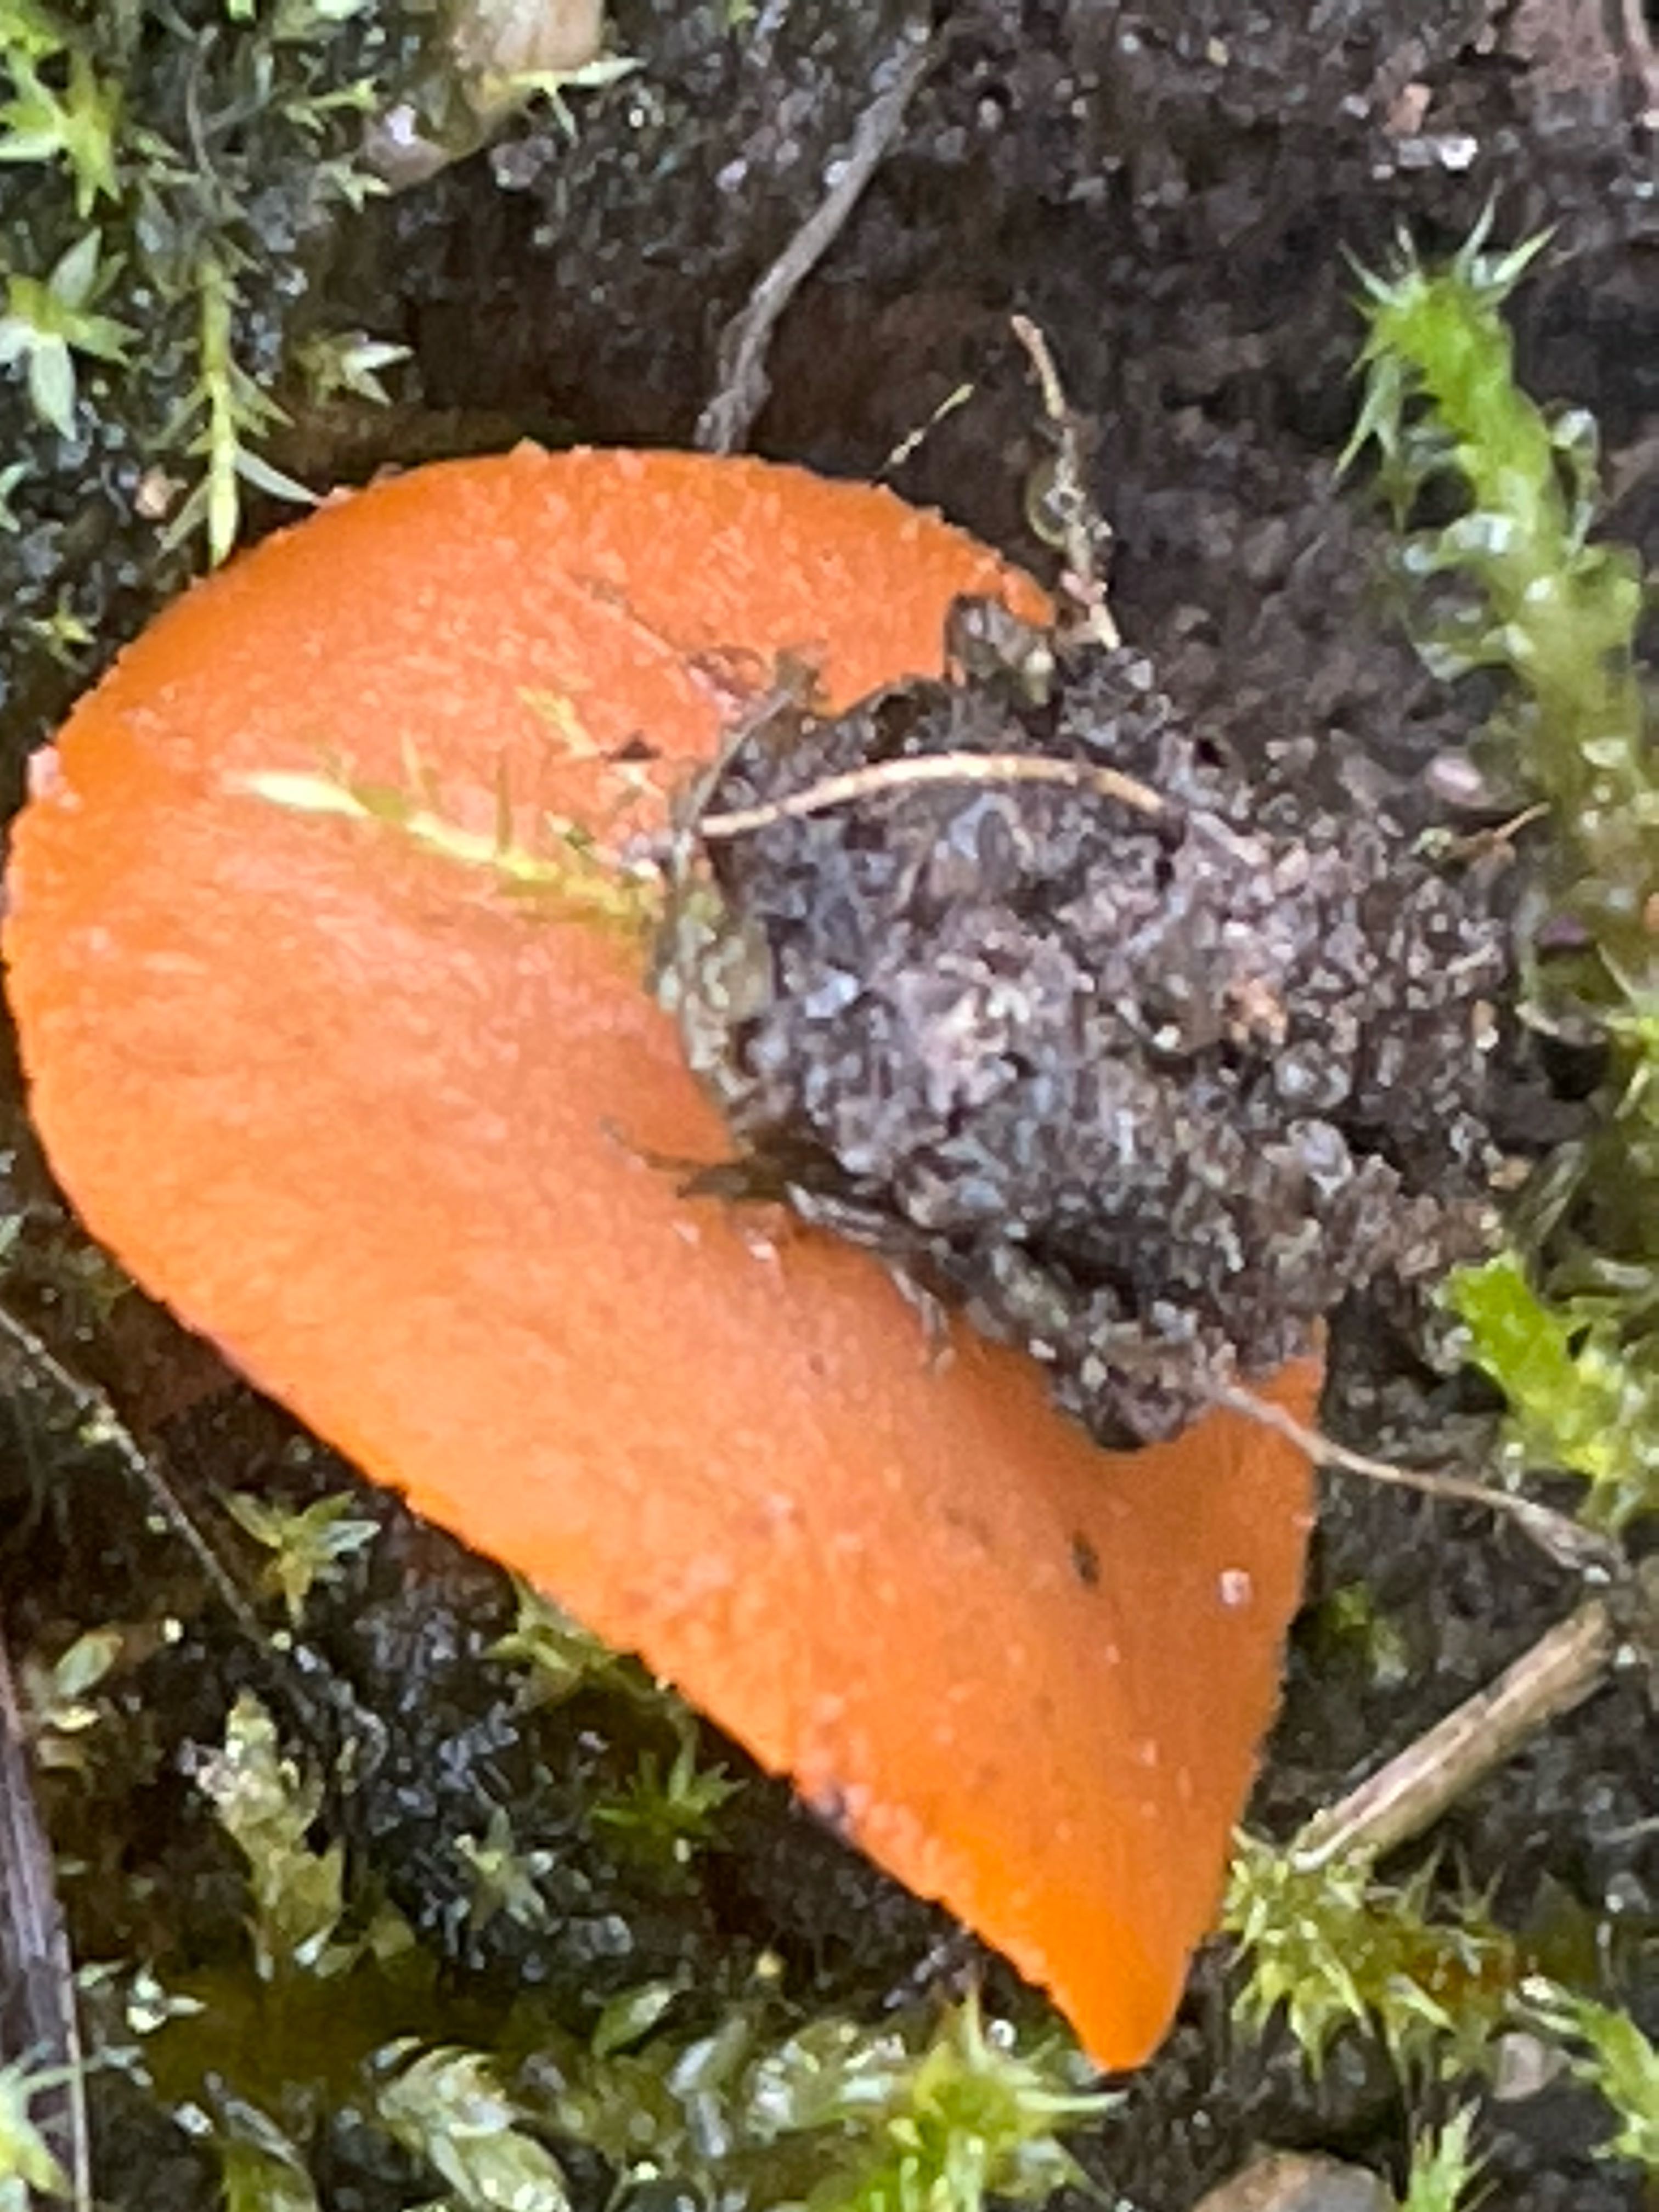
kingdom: Fungi
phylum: Ascomycota
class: Pezizomycetes
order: Pezizales
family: Pyronemataceae
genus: Aleuria
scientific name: Aleuria aurantia
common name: almindelig orangebæger
